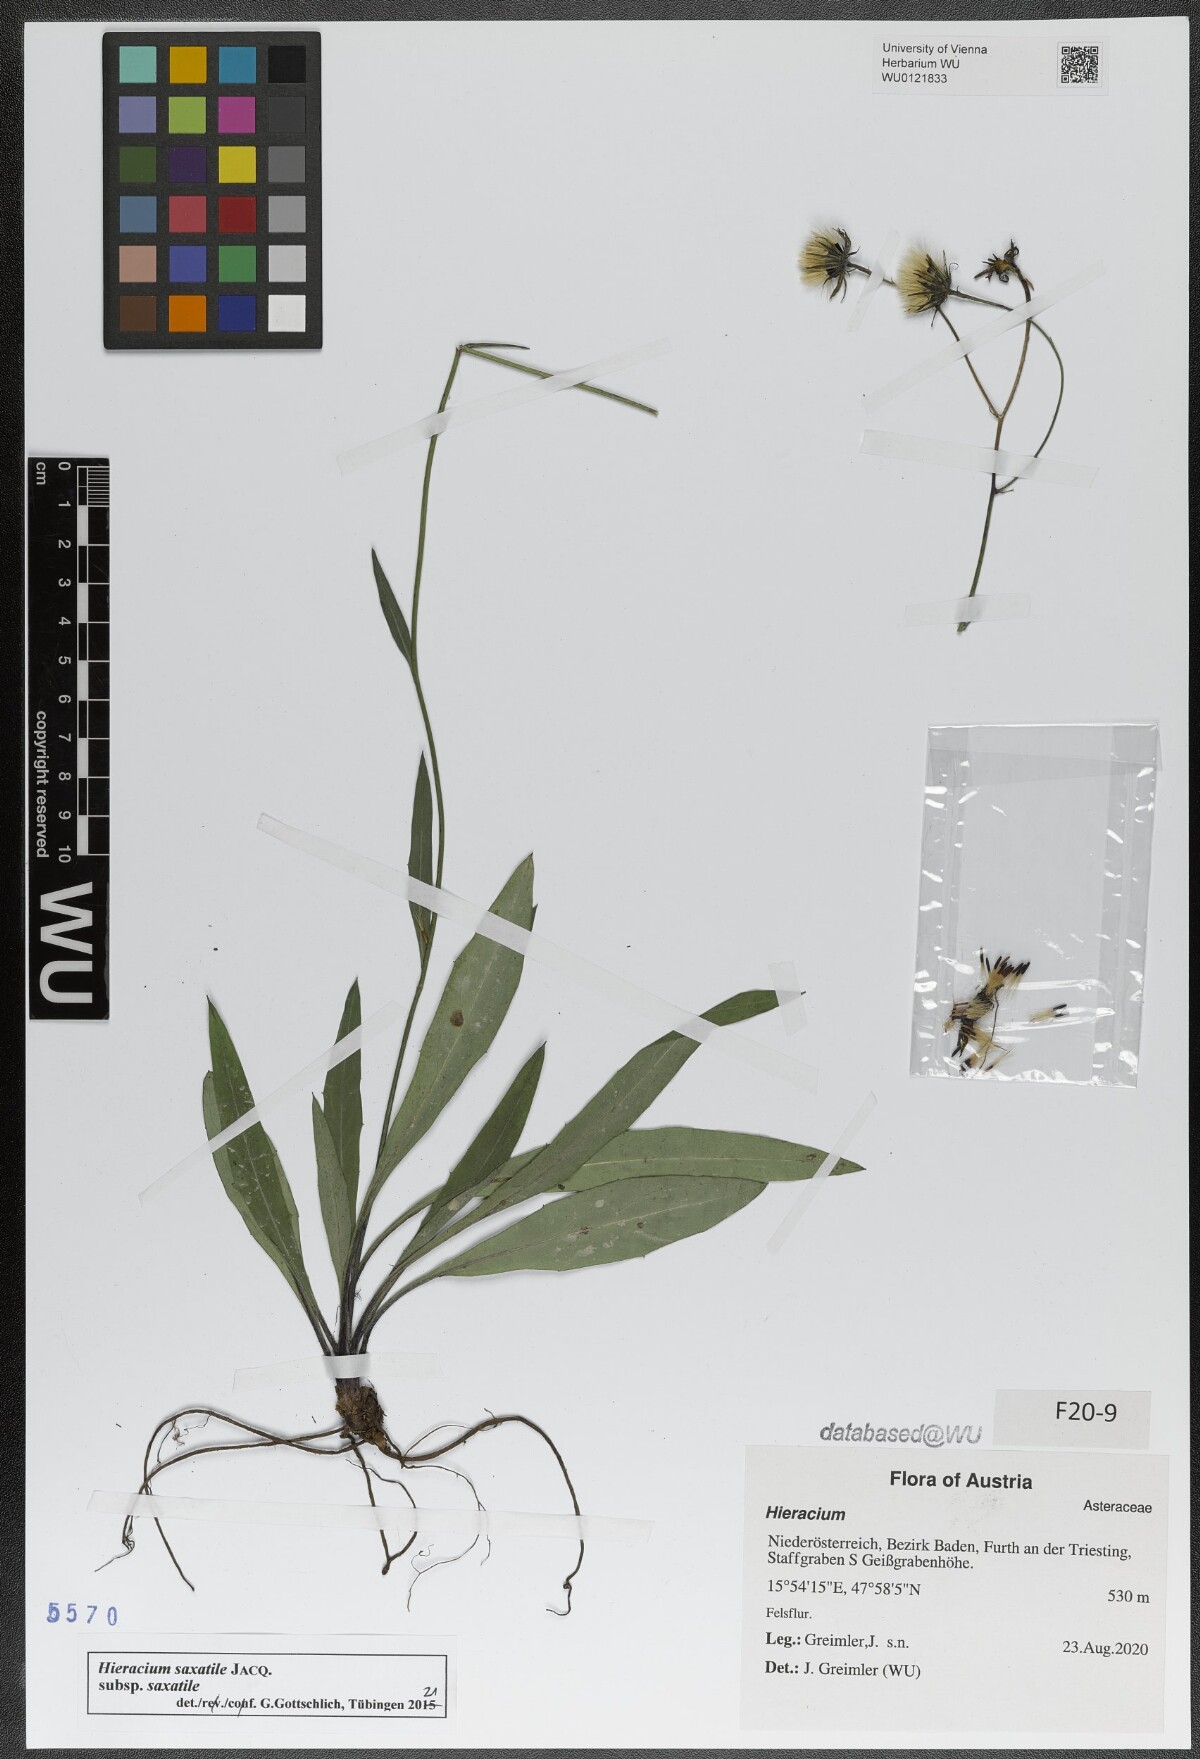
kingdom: Plantae
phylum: Tracheophyta
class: Magnoliopsida
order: Asterales
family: Asteraceae
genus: Hieracium
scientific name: Hieracium saxatile
